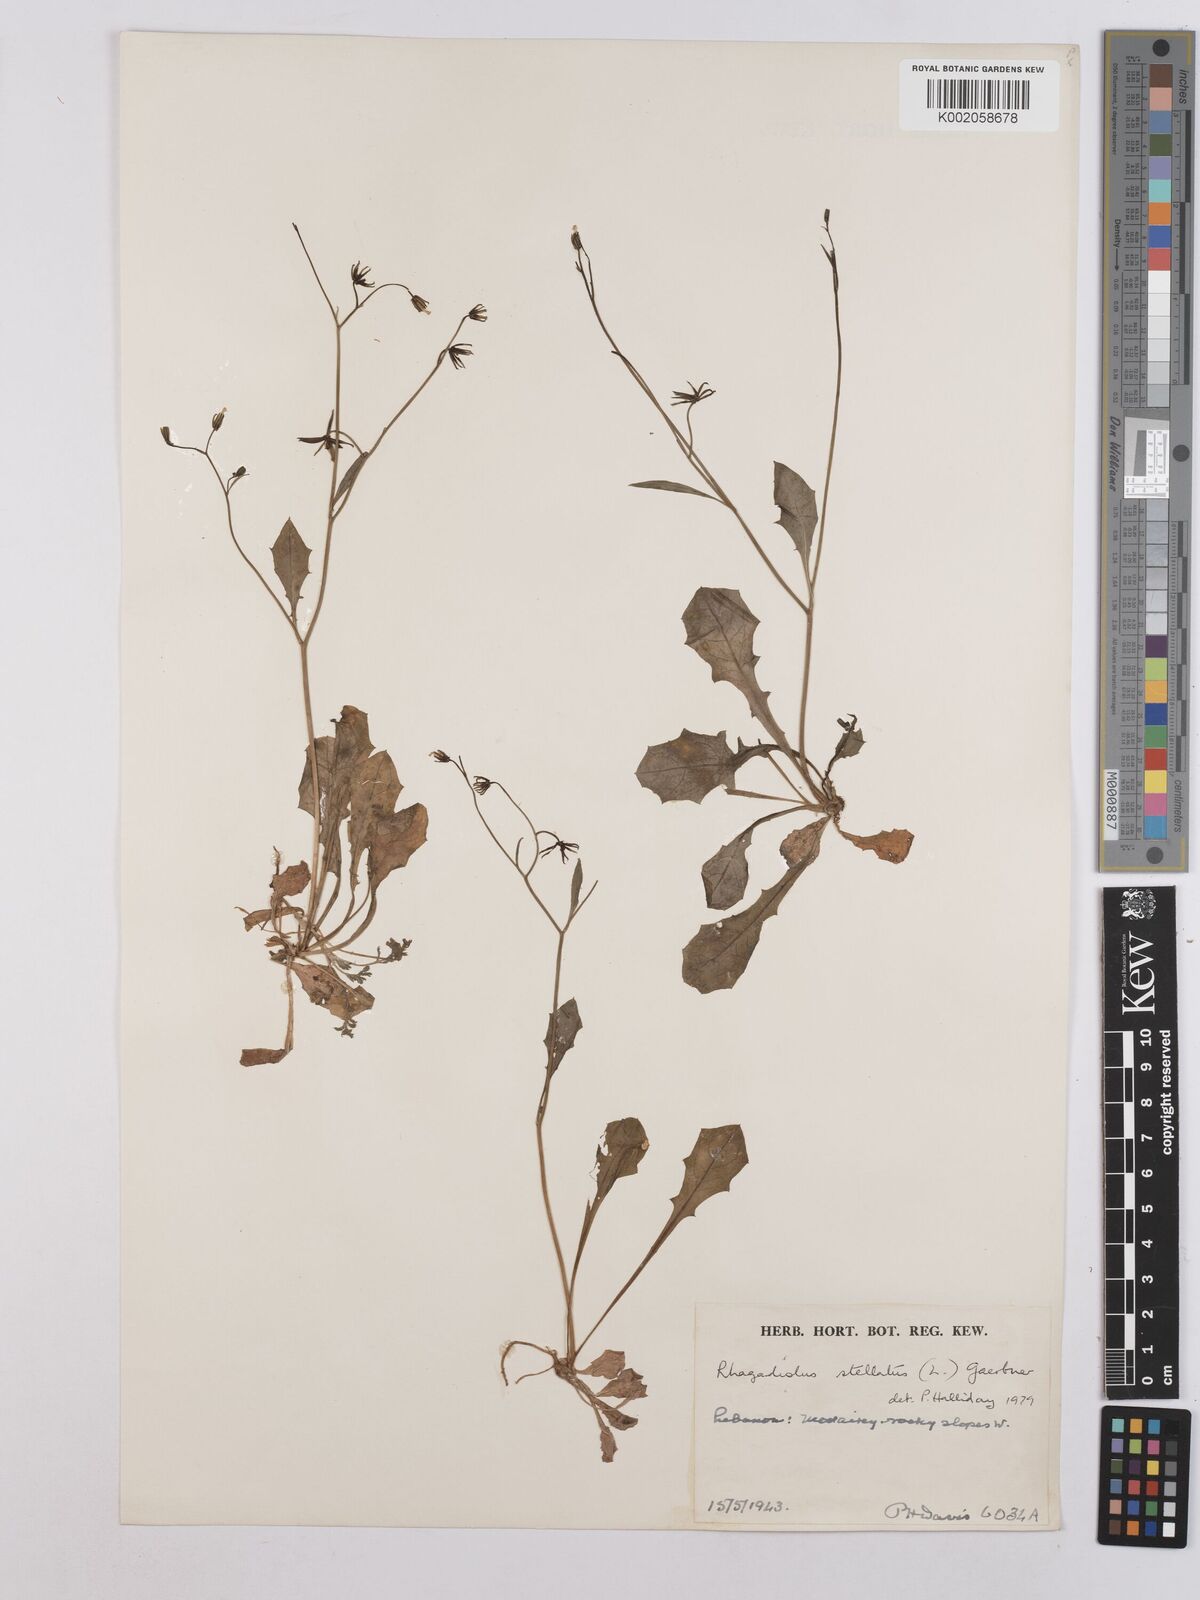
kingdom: Plantae
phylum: Tracheophyta
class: Magnoliopsida
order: Asterales
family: Asteraceae
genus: Rhagadiolus
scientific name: Rhagadiolus stellatus
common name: Star hawkbit
